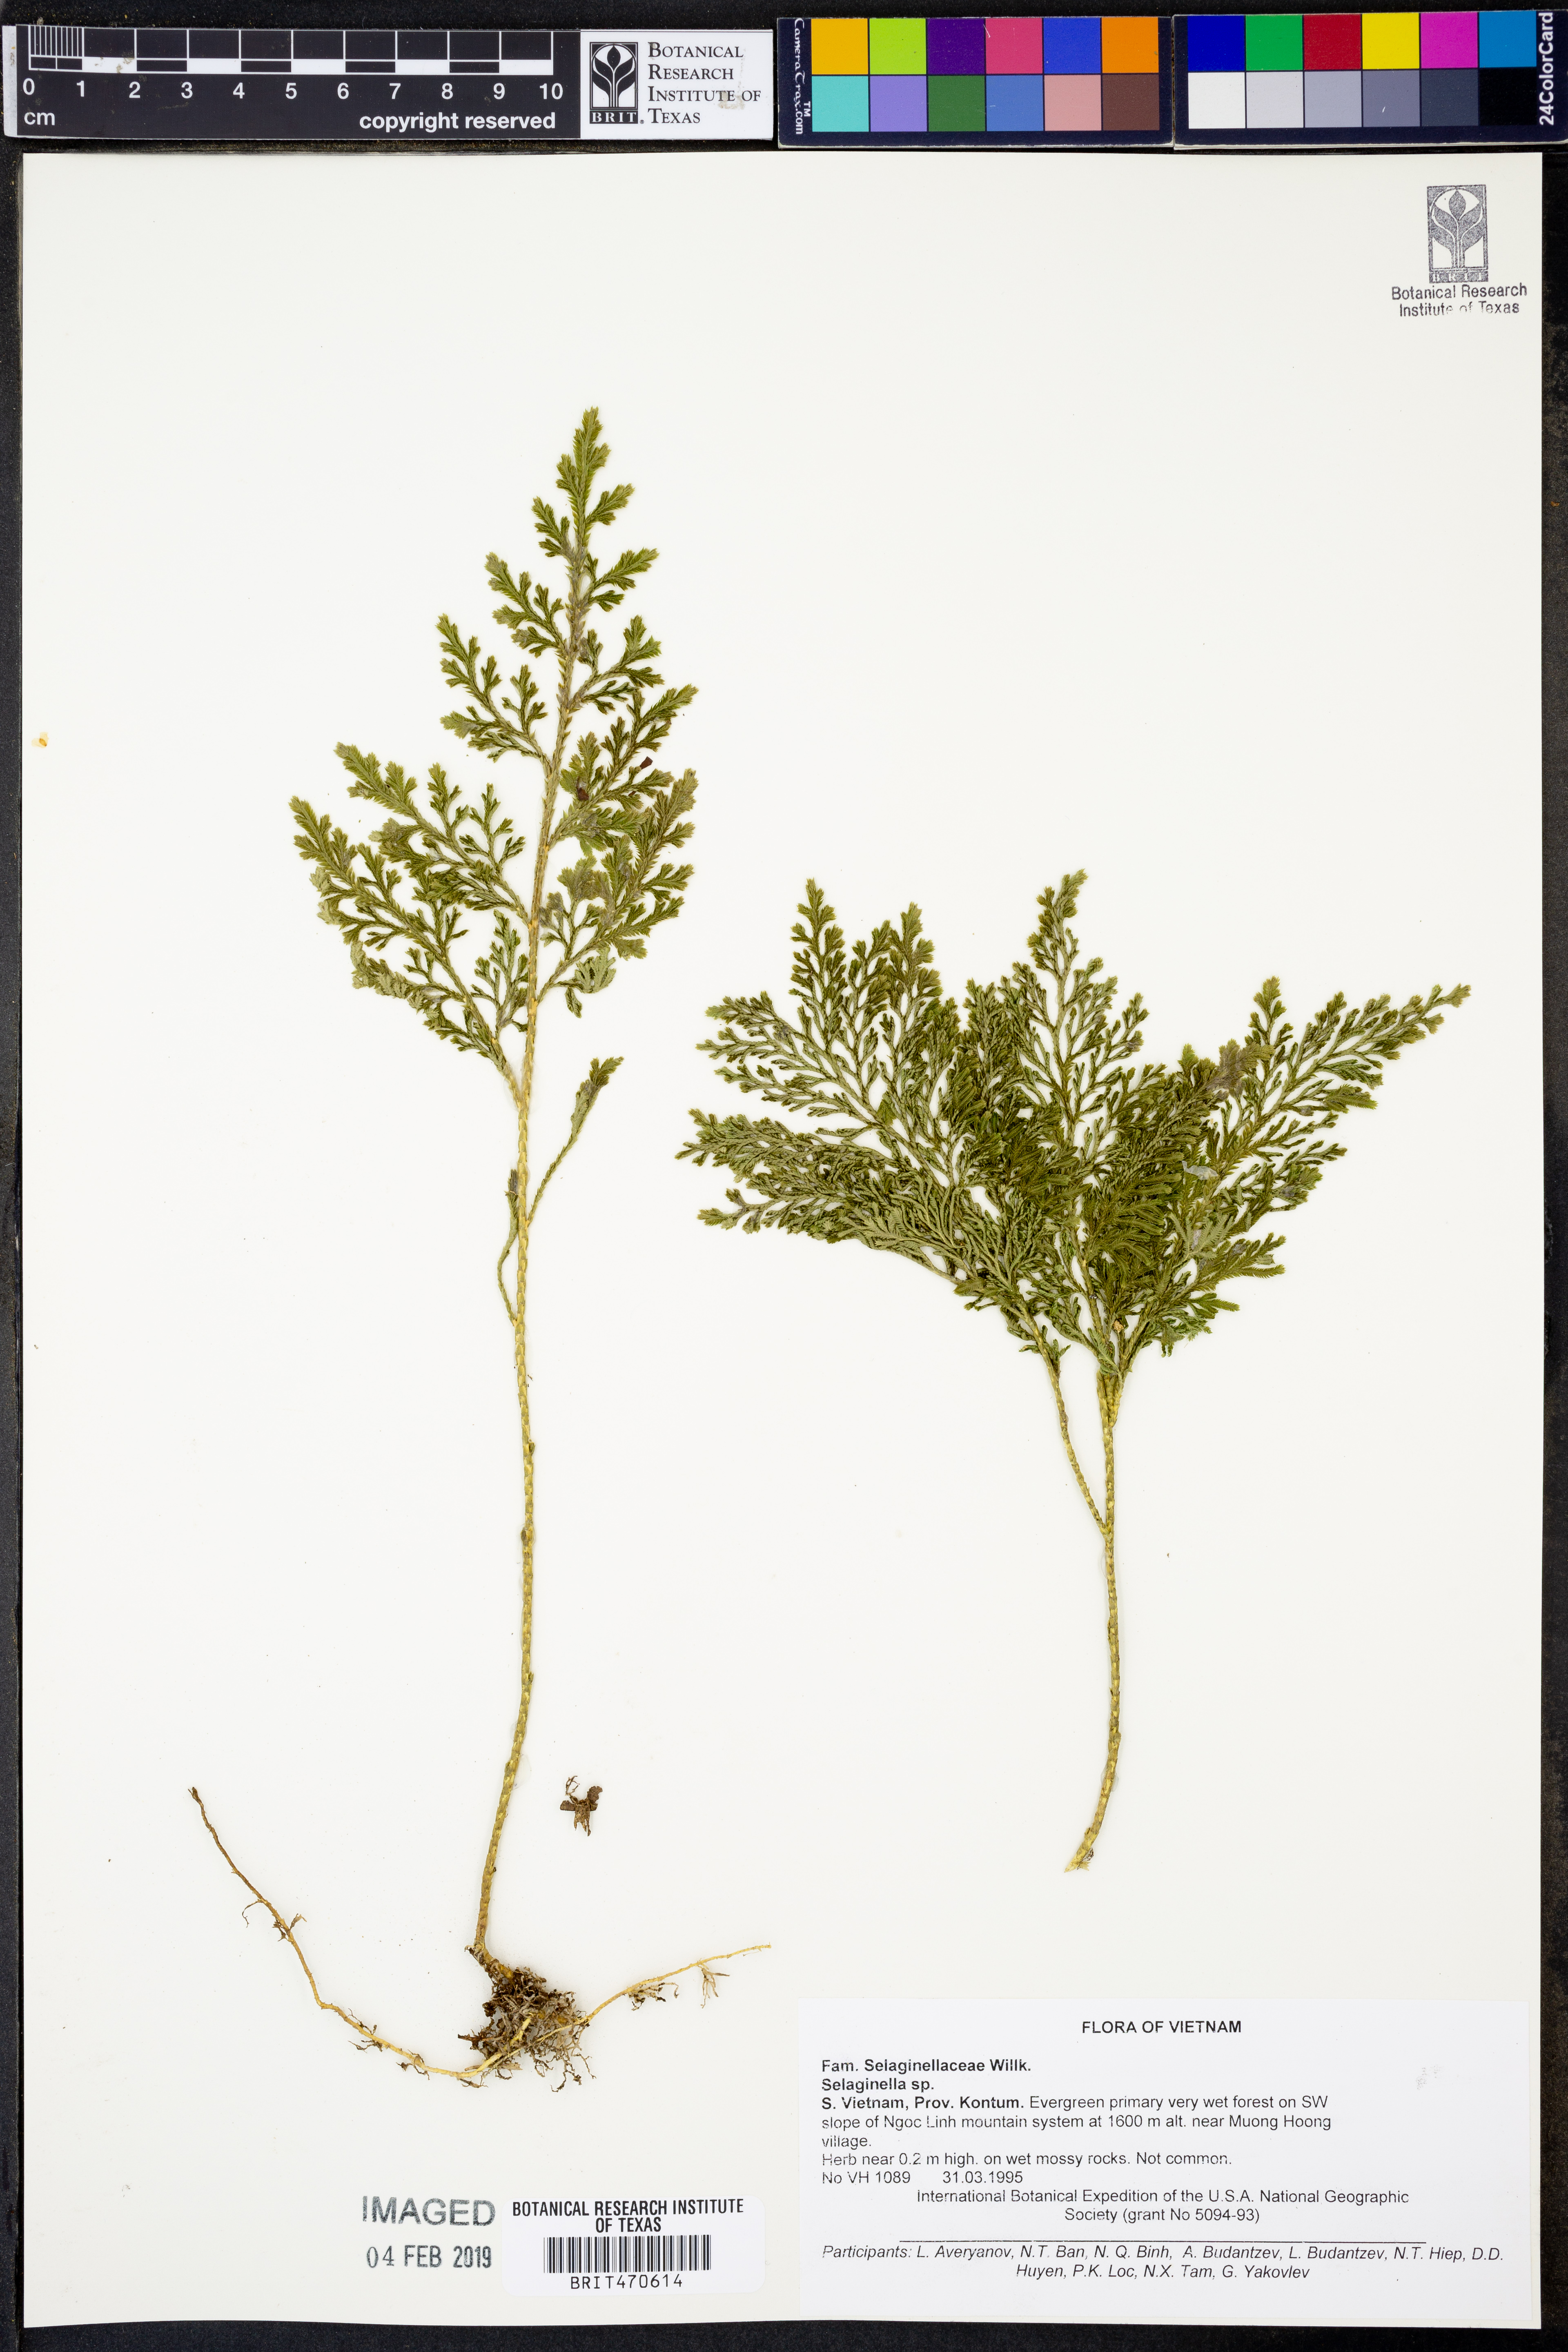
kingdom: Plantae
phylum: Tracheophyta
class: Lycopodiopsida
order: Selaginellales
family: Selaginellaceae
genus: Selaginella
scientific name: Selaginella
